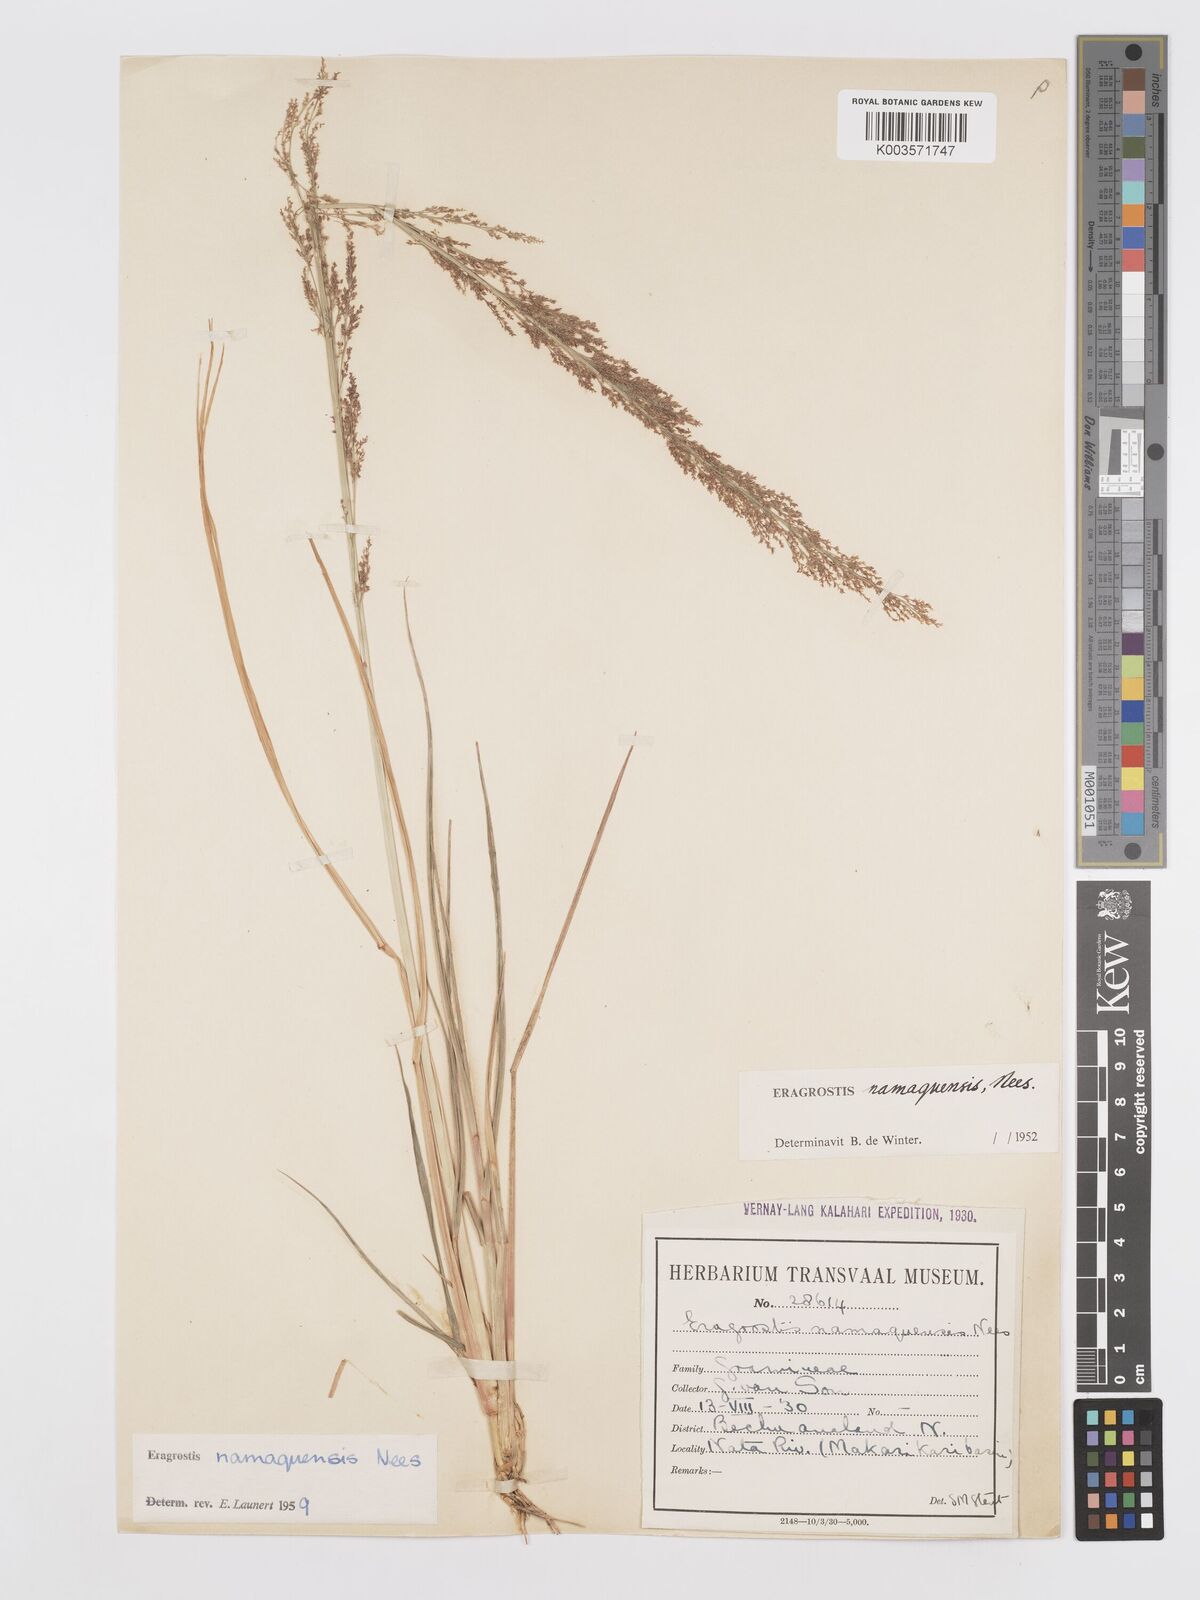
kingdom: Plantae
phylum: Tracheophyta
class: Liliopsida
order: Poales
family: Poaceae
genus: Eragrostis
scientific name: Eragrostis japonica
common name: Pond lovegrass
